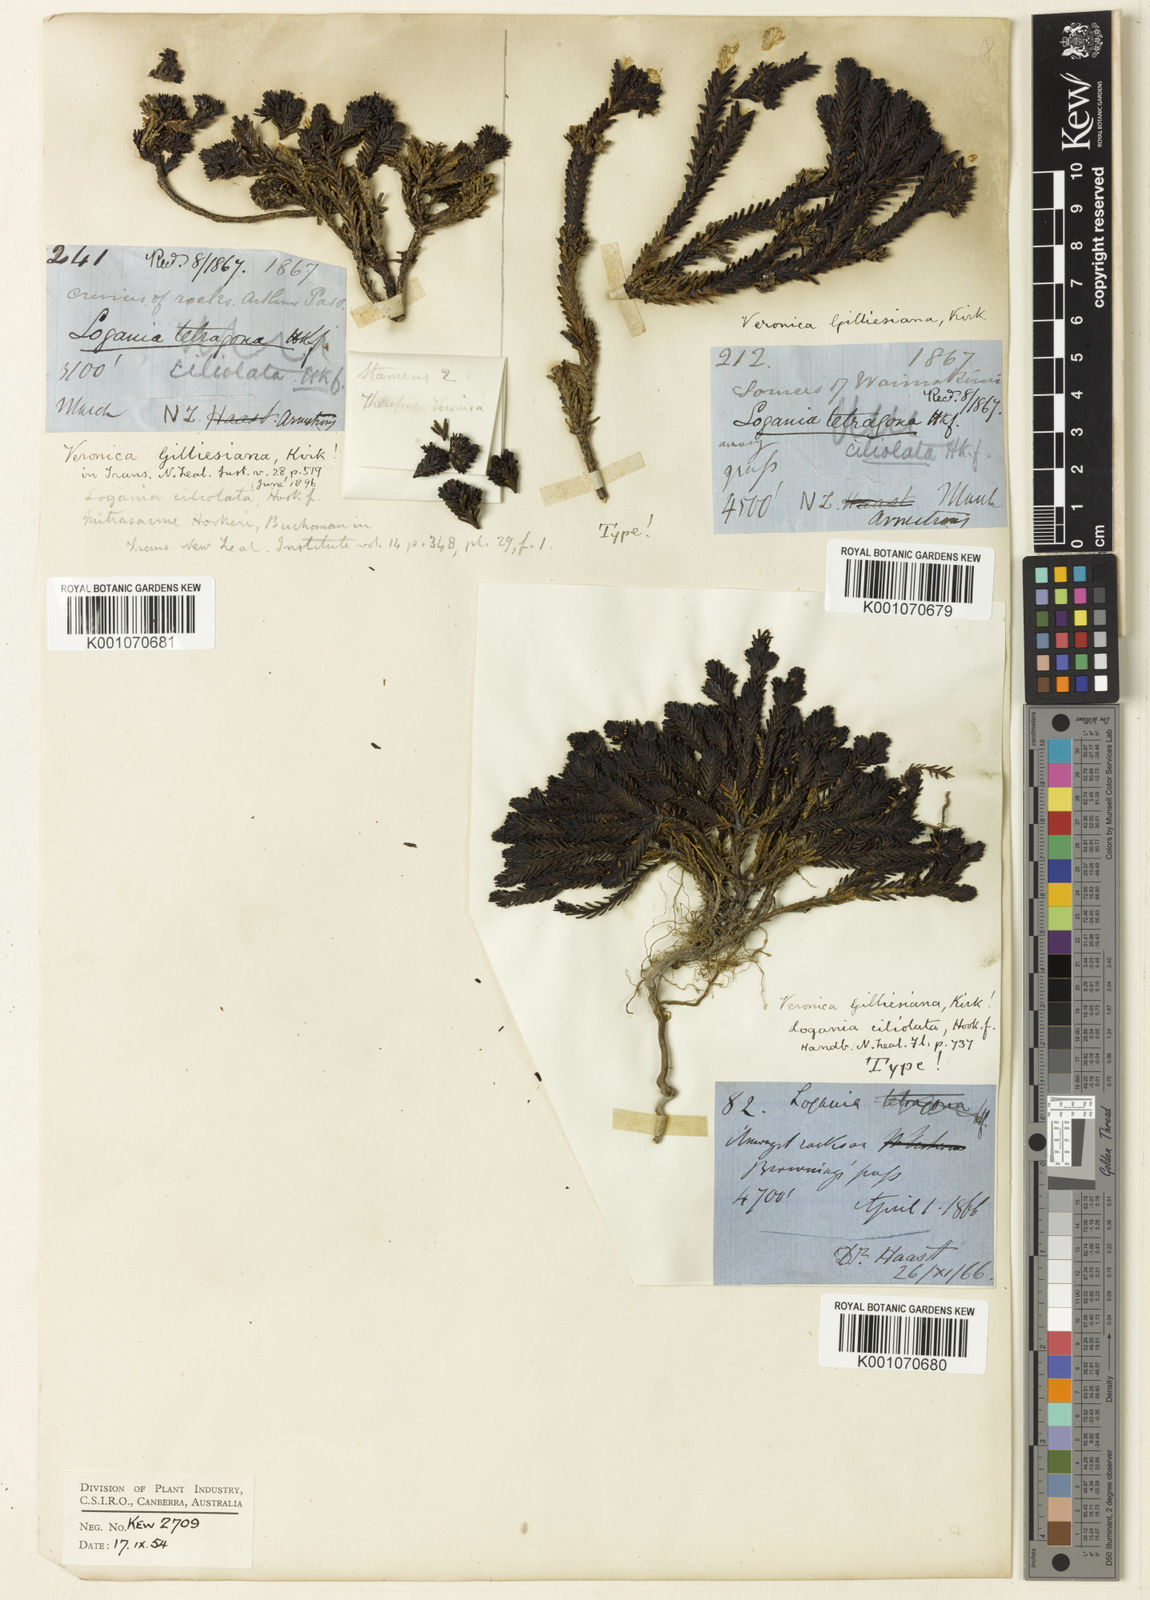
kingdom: Plantae
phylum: Tracheophyta
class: Magnoliopsida
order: Lamiales
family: Plantaginaceae
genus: Veronica
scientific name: Veronica ciliolata
